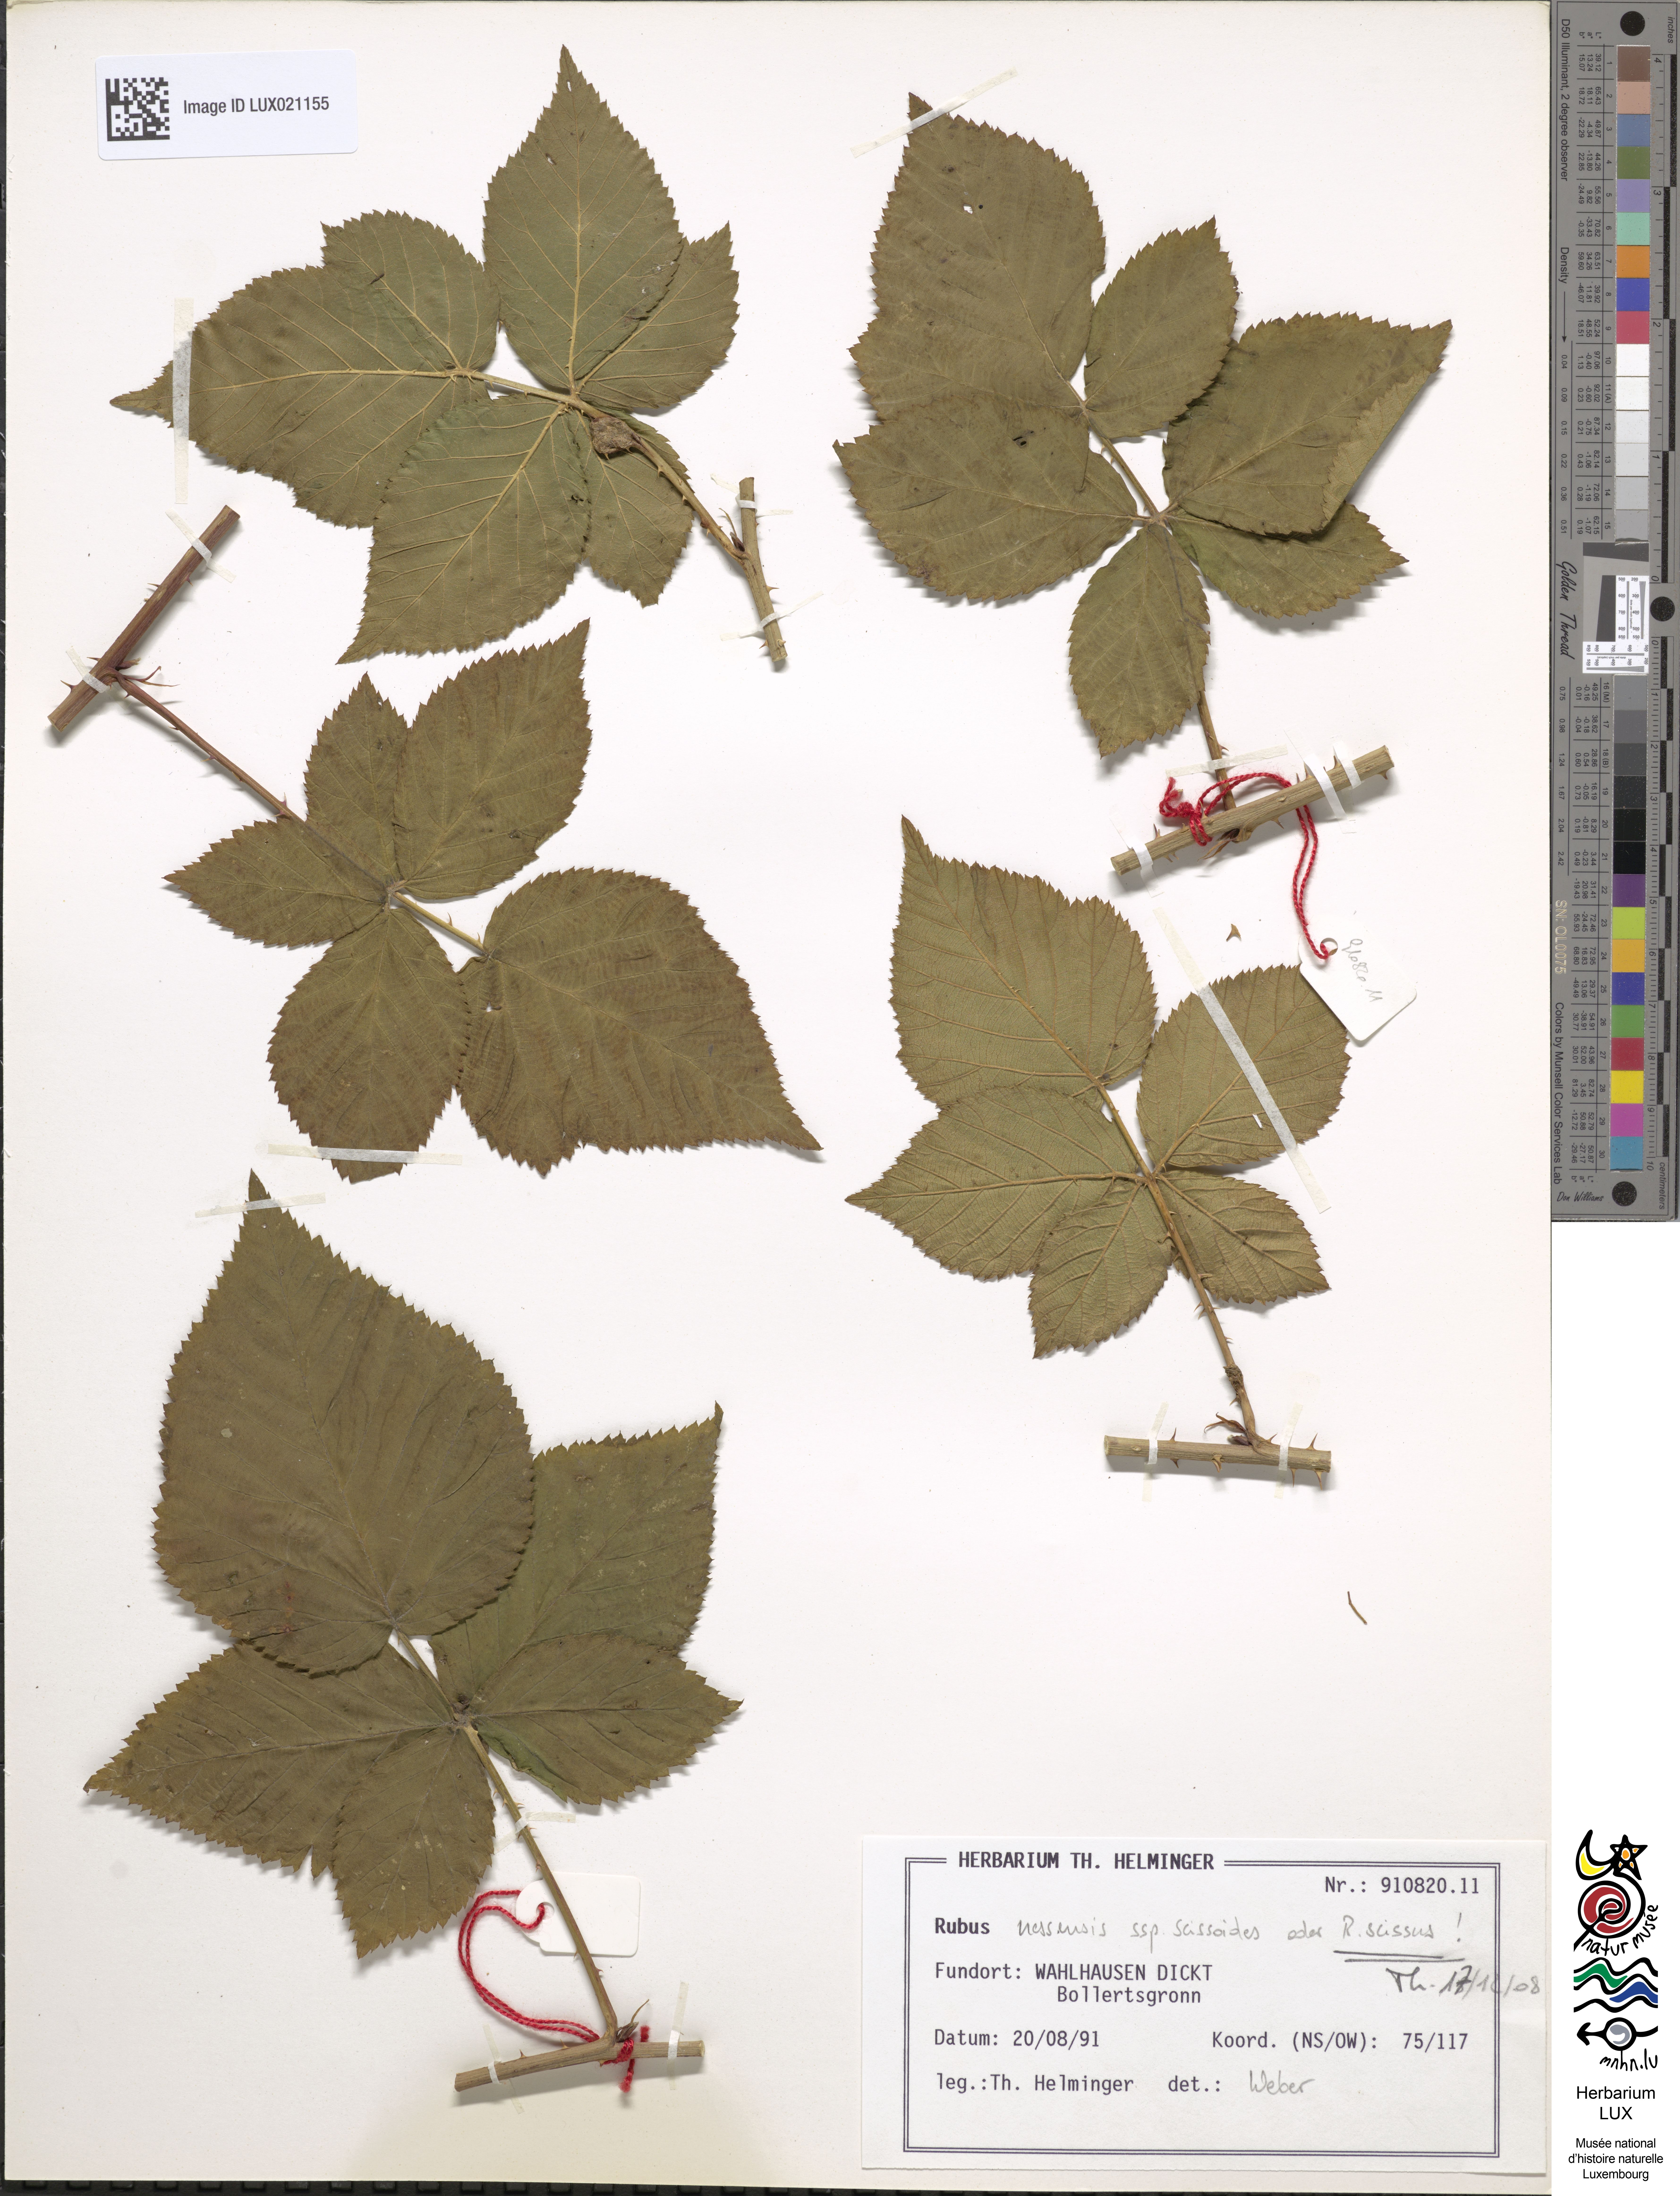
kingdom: Plantae
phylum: Tracheophyta
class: Magnoliopsida
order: Rosales
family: Rosaceae
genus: Rubus
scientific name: Rubus scissus
